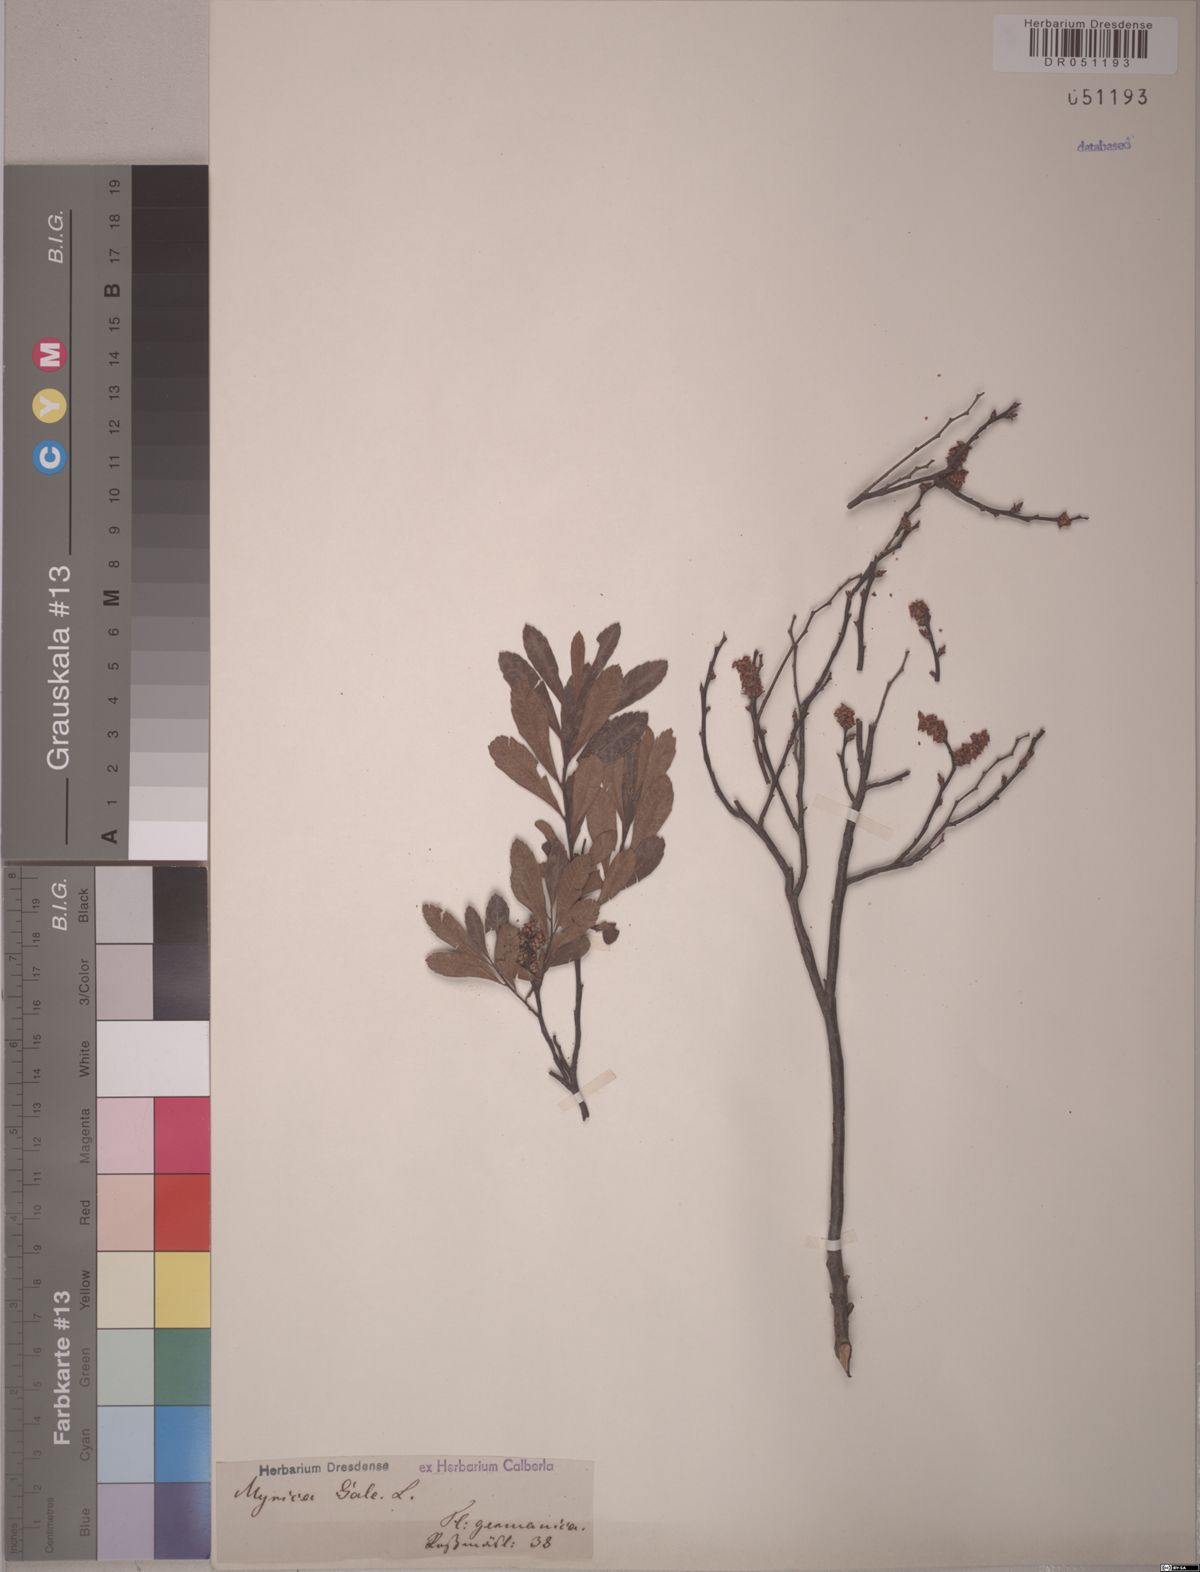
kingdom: Plantae
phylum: Tracheophyta
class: Magnoliopsida
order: Fagales
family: Myricaceae
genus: Myrica
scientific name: Myrica gale
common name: Sweet gale
